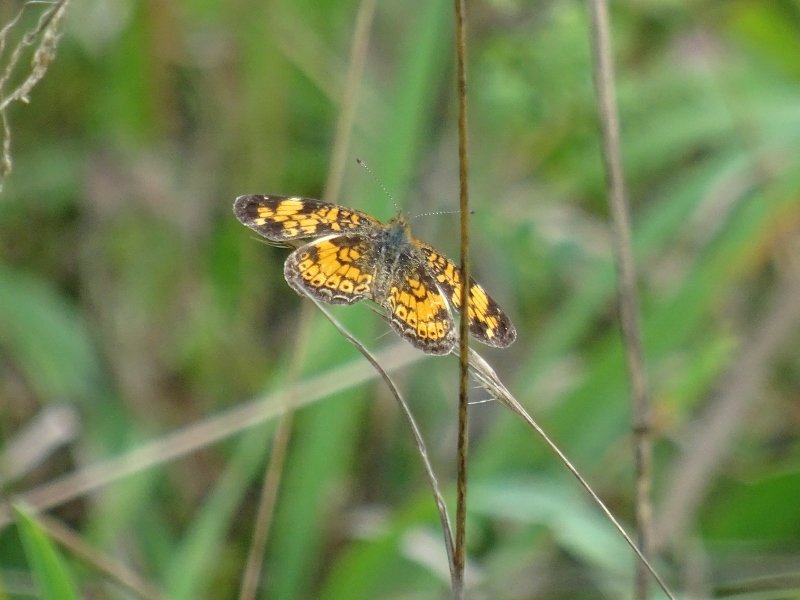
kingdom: Animalia
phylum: Arthropoda
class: Insecta
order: Lepidoptera
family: Nymphalidae
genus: Phyciodes
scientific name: Phyciodes tharos
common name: Pearl Crescent
